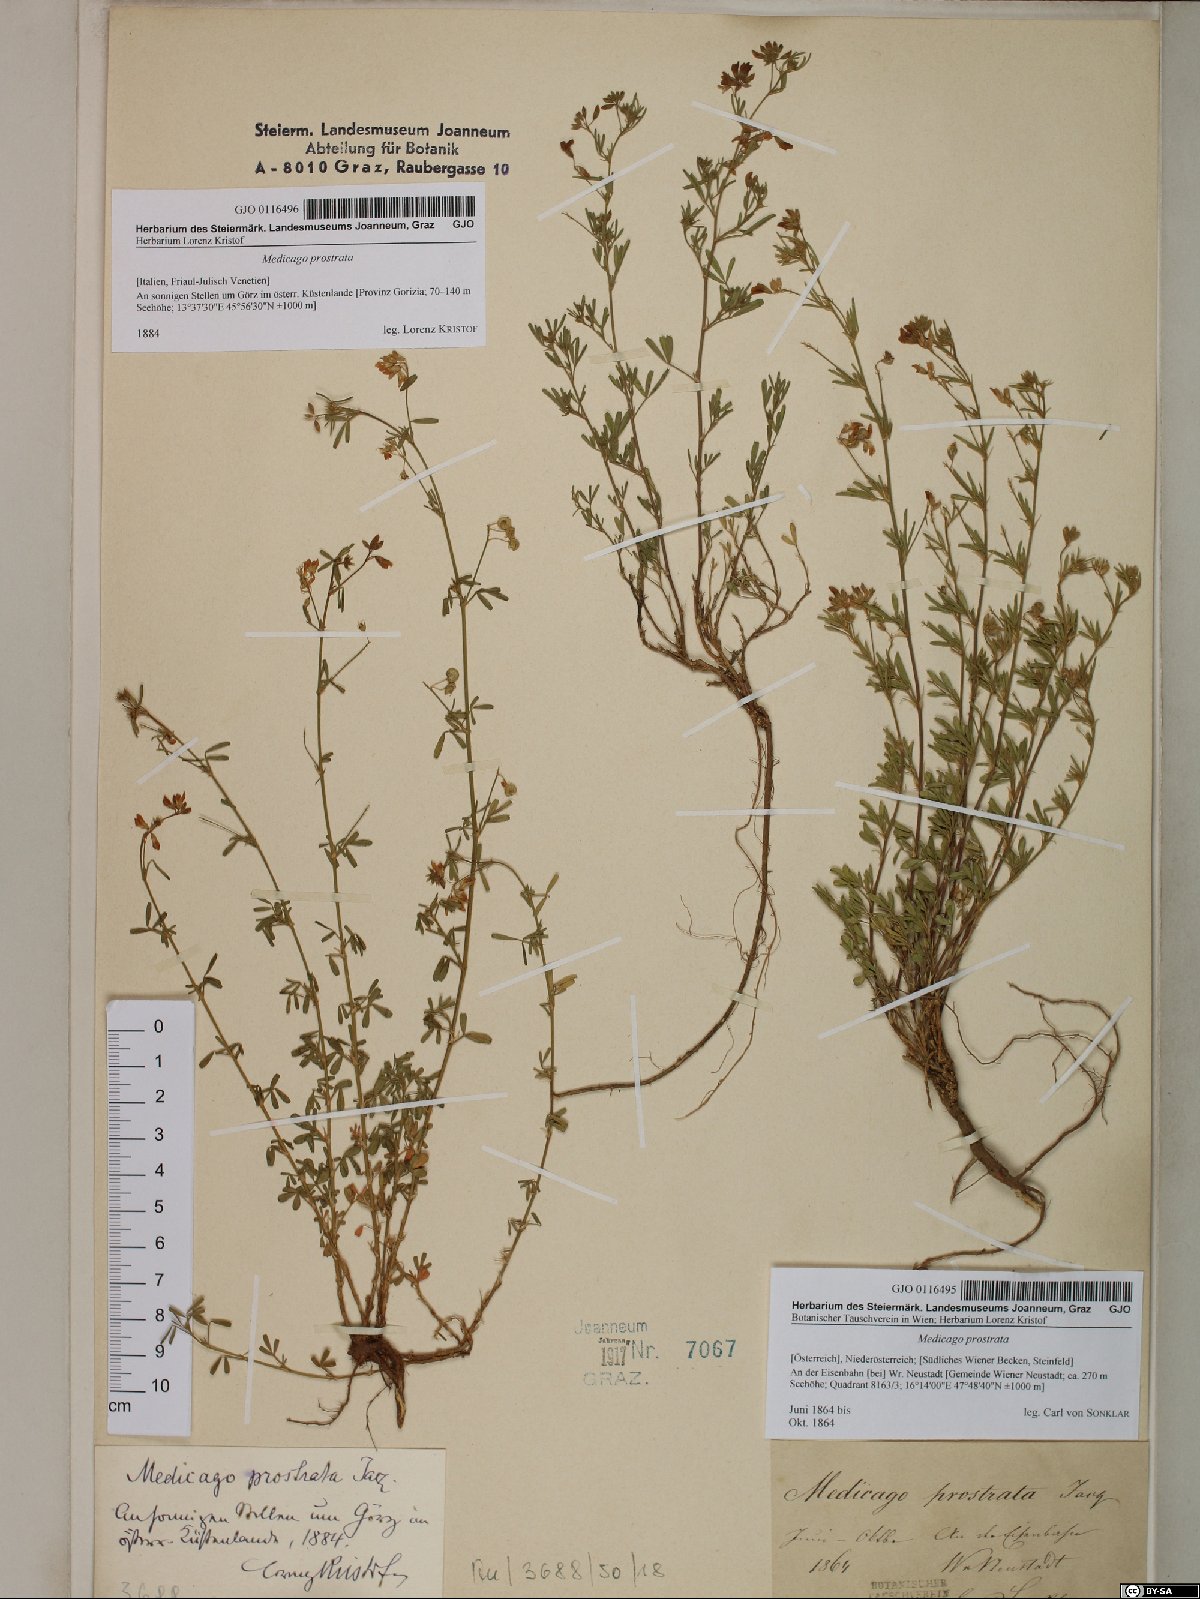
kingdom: Plantae
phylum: Tracheophyta
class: Magnoliopsida
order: Fabales
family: Fabaceae
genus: Medicago
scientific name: Medicago prostrata
